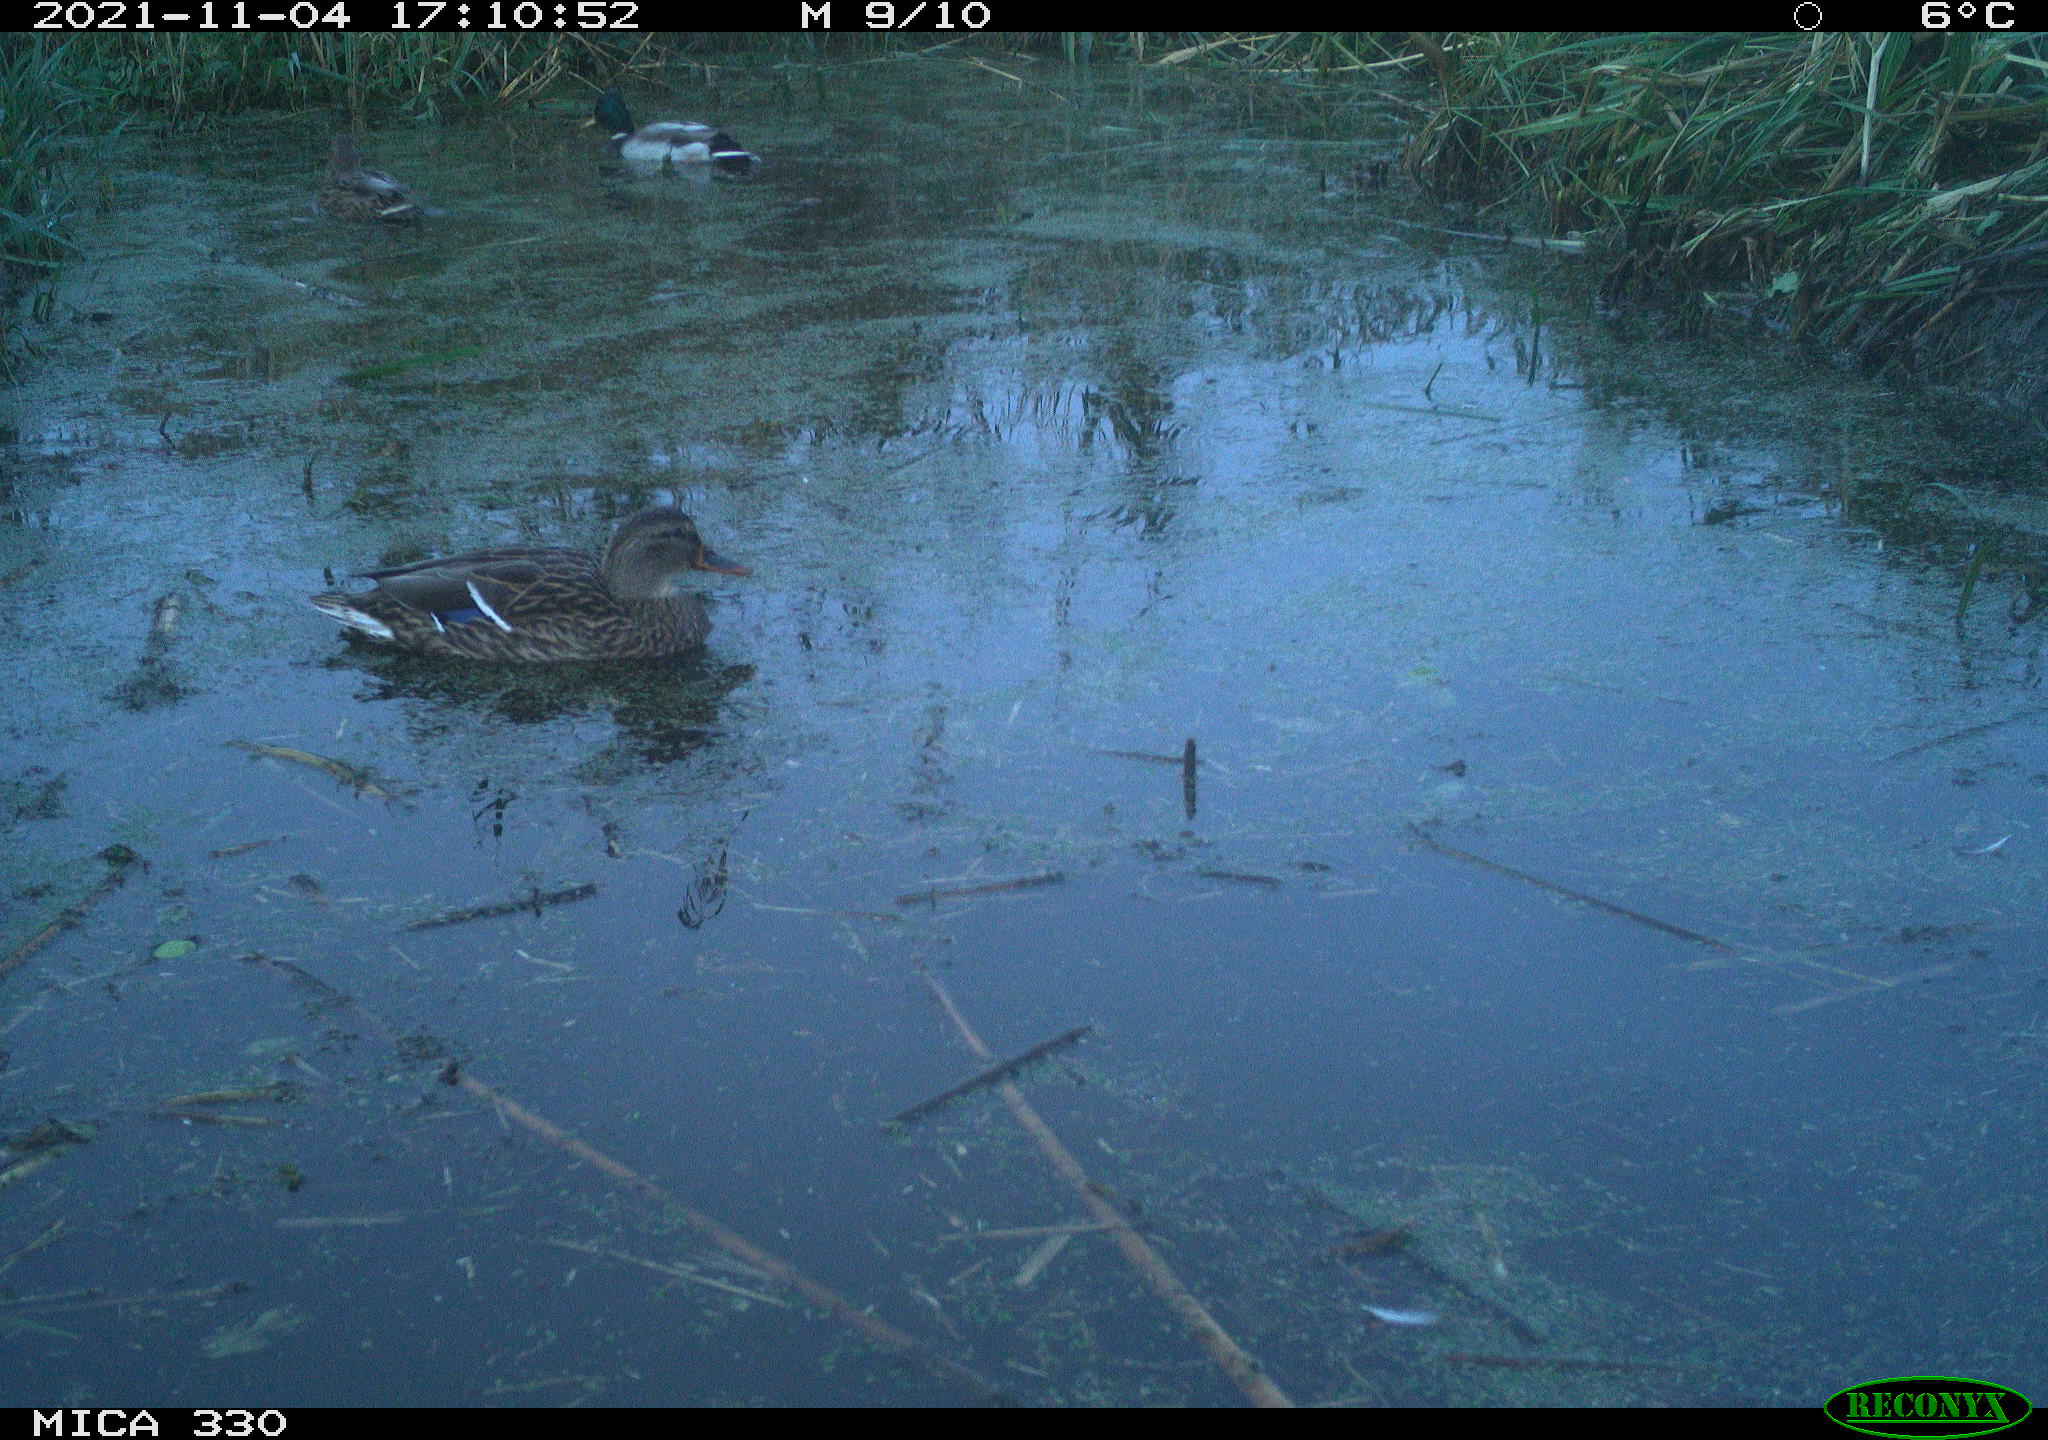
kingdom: Animalia
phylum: Chordata
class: Aves
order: Anseriformes
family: Anatidae
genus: Anas
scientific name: Anas platyrhynchos
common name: Mallard
